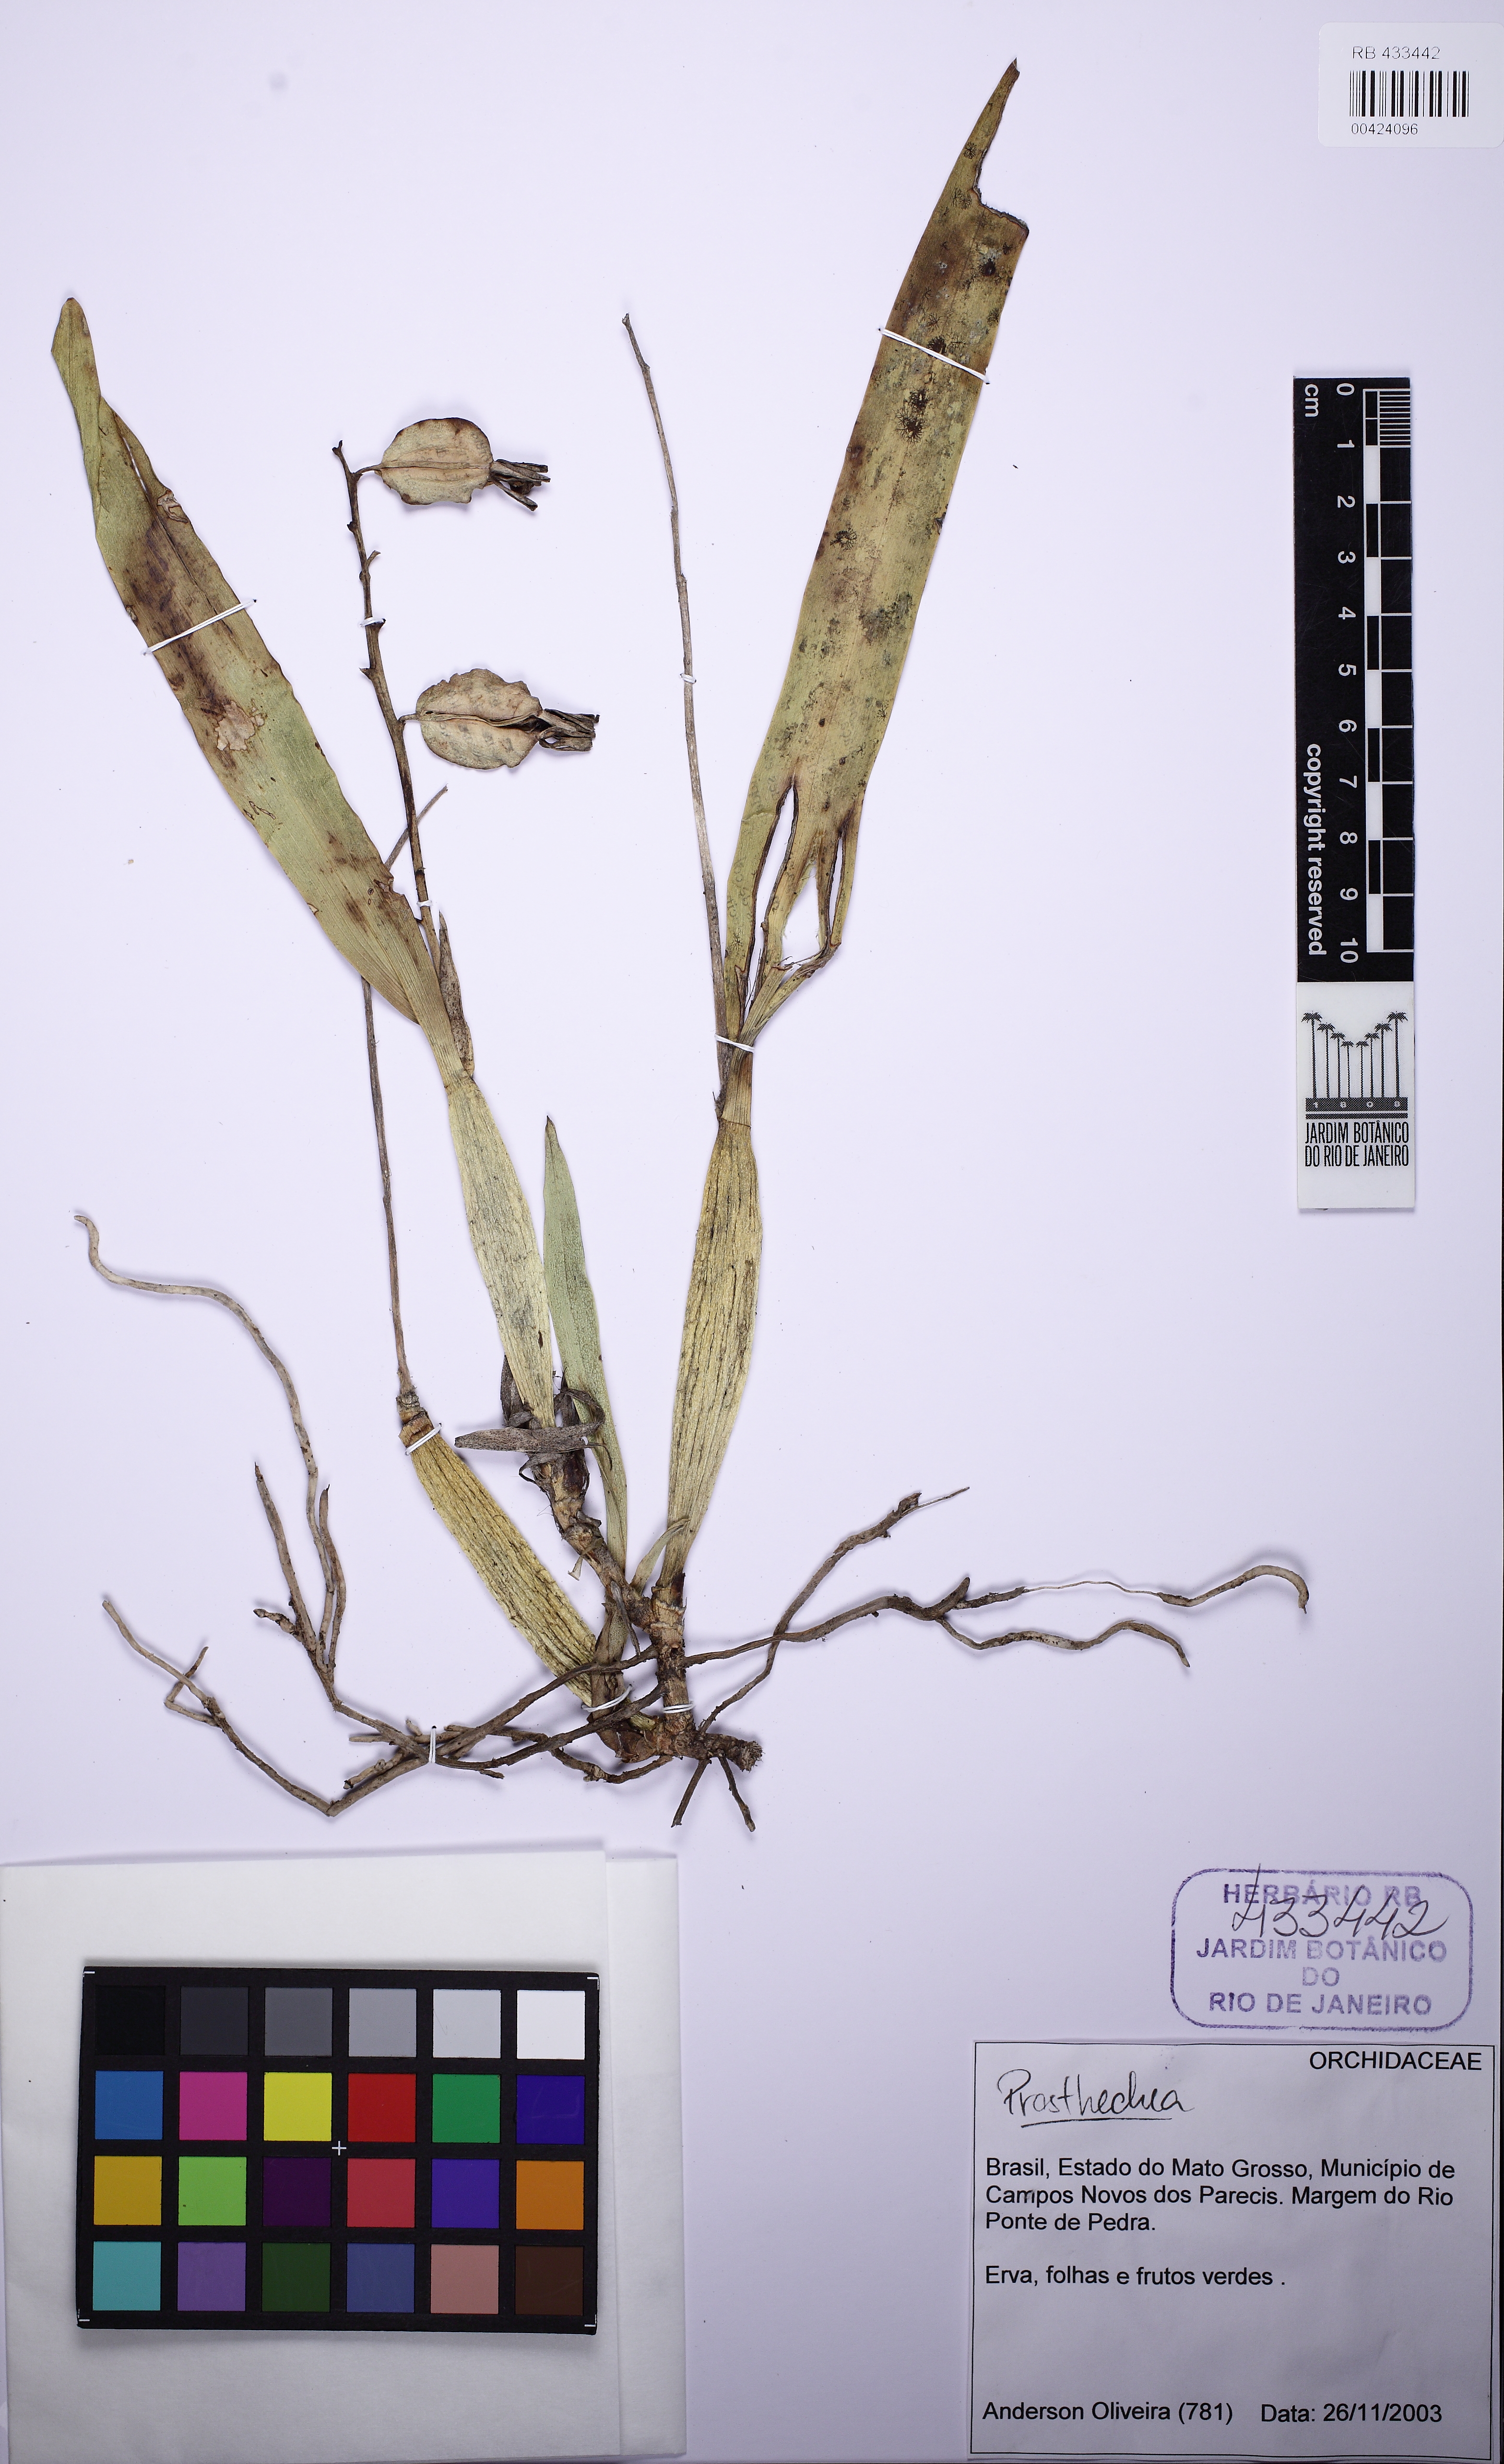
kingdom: Plantae
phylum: Tracheophyta
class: Liliopsida
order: Asparagales
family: Orchidaceae
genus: Prosthechea
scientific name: Prosthechea vespa
